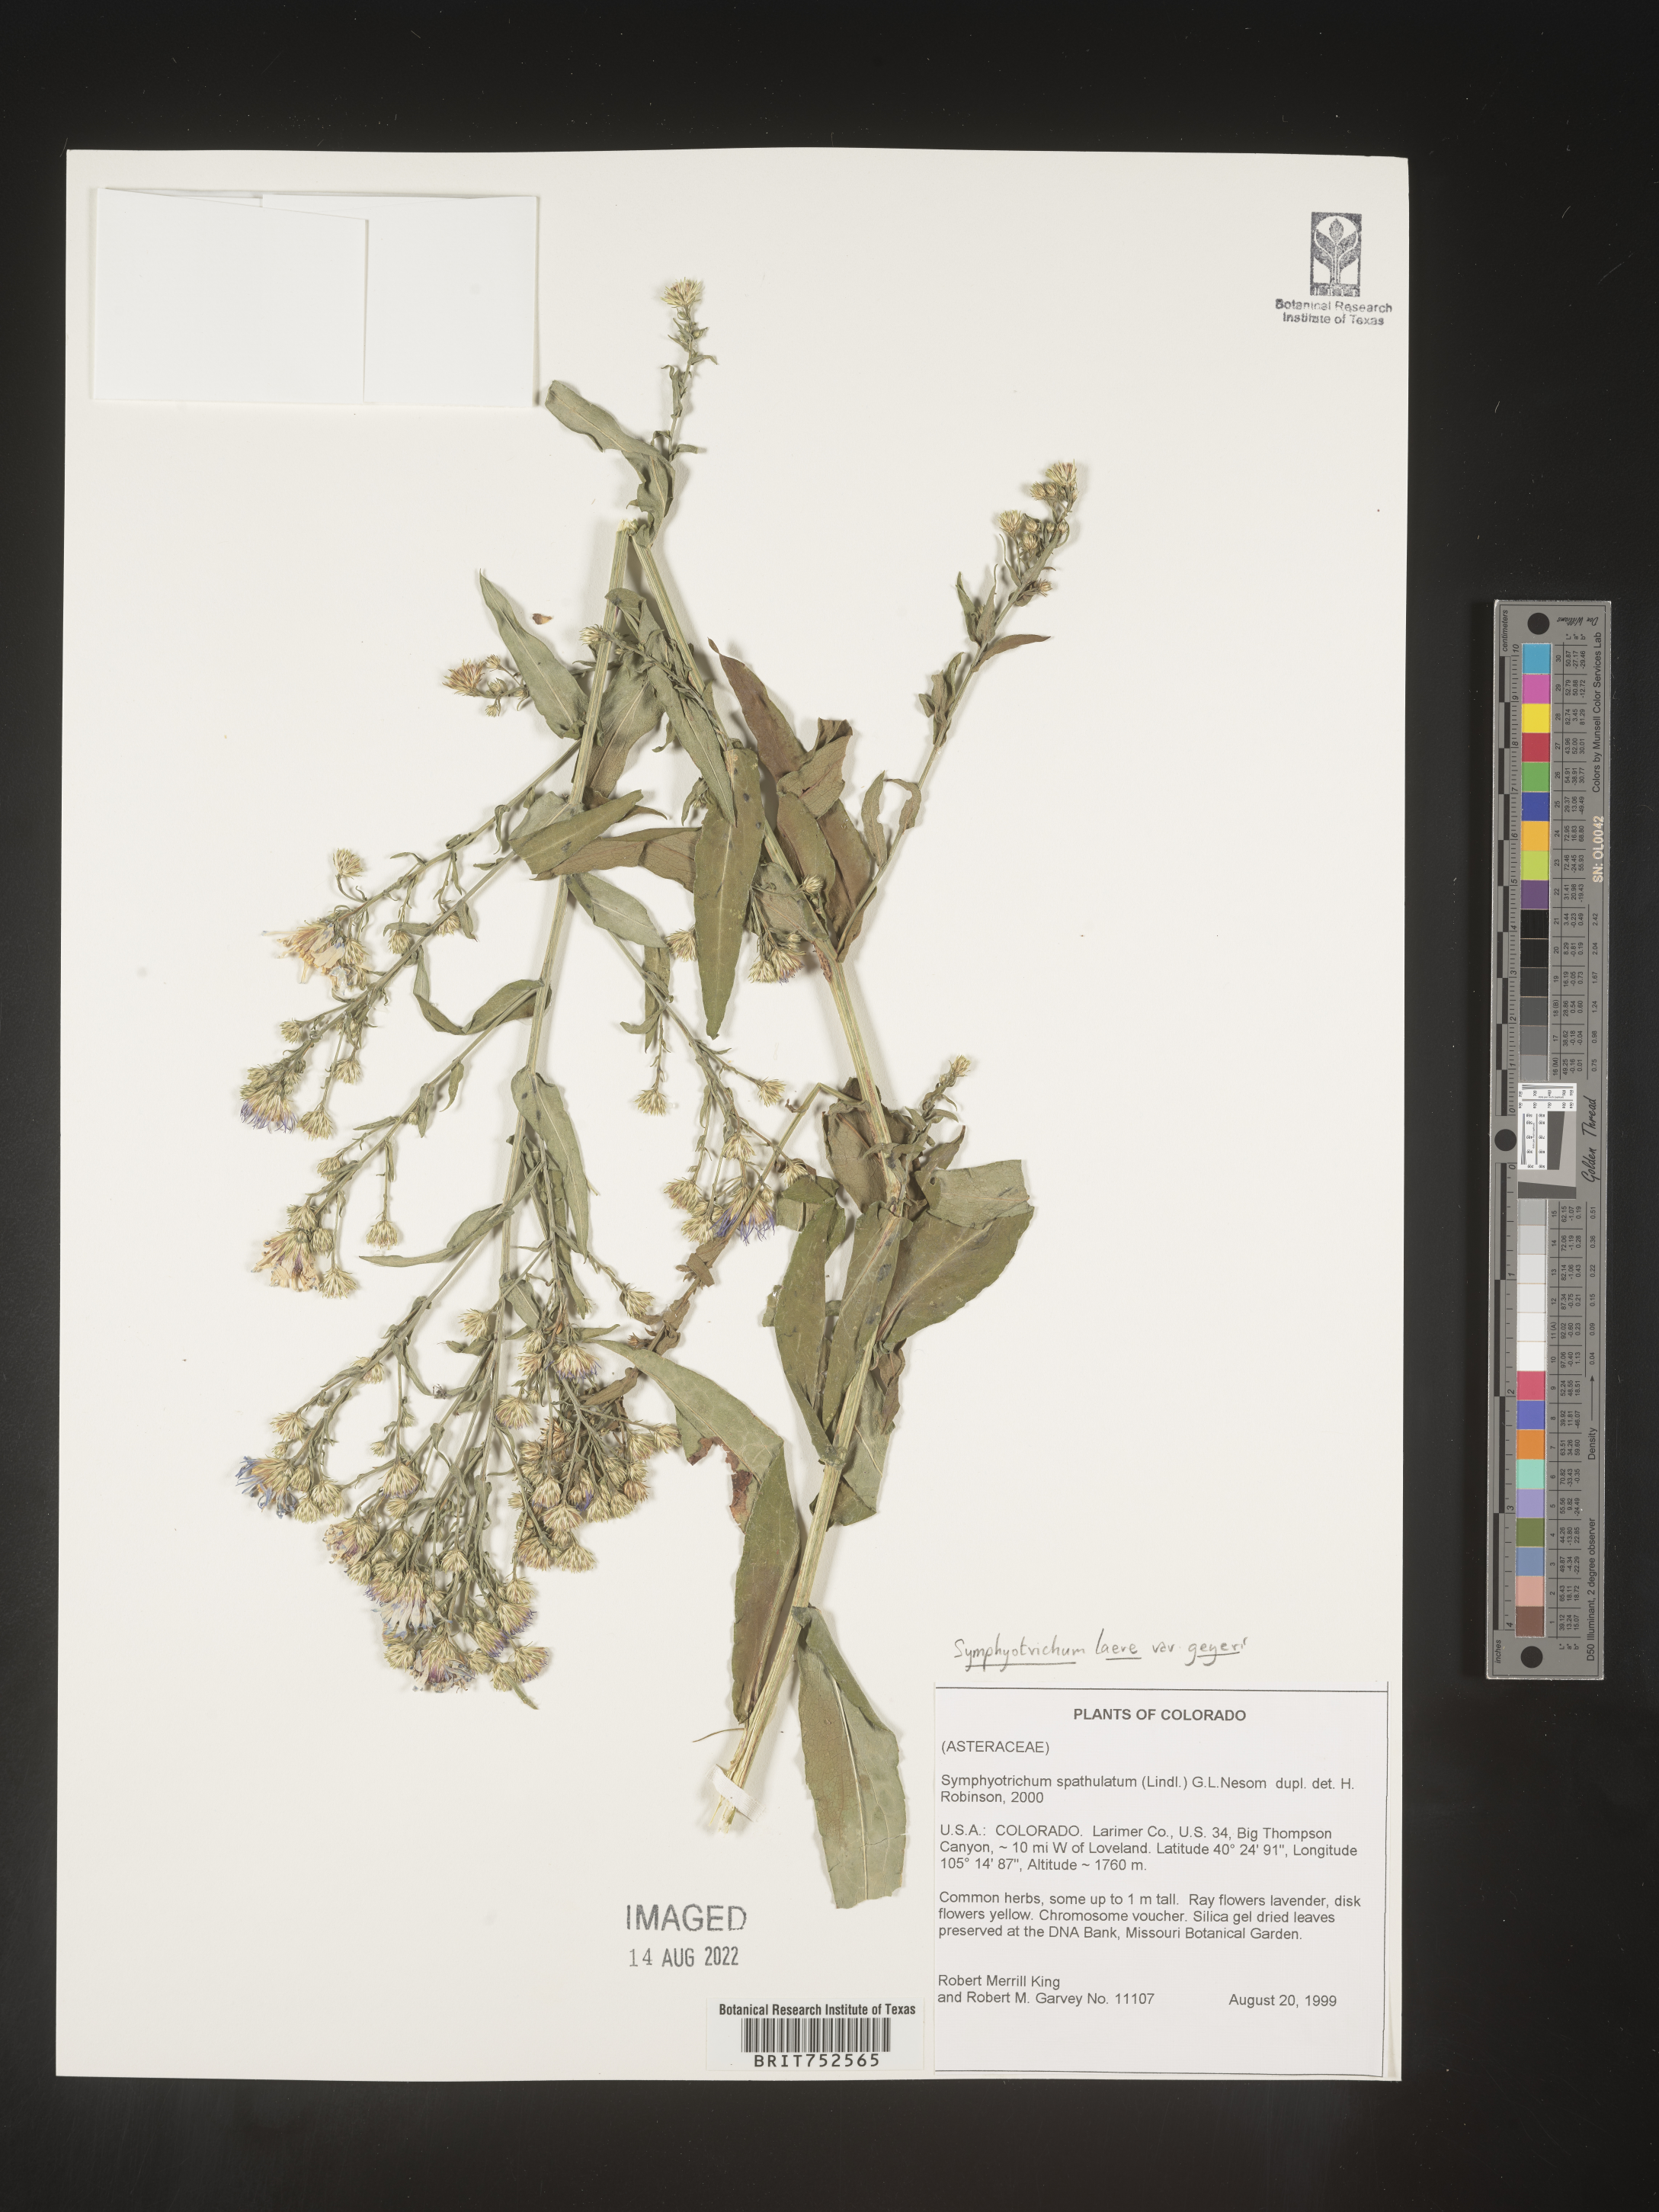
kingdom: Plantae
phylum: Tracheophyta
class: Magnoliopsida
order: Asterales
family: Asteraceae
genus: Symphyotrichum
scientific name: Symphyotrichum laeve
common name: Glaucous aster
